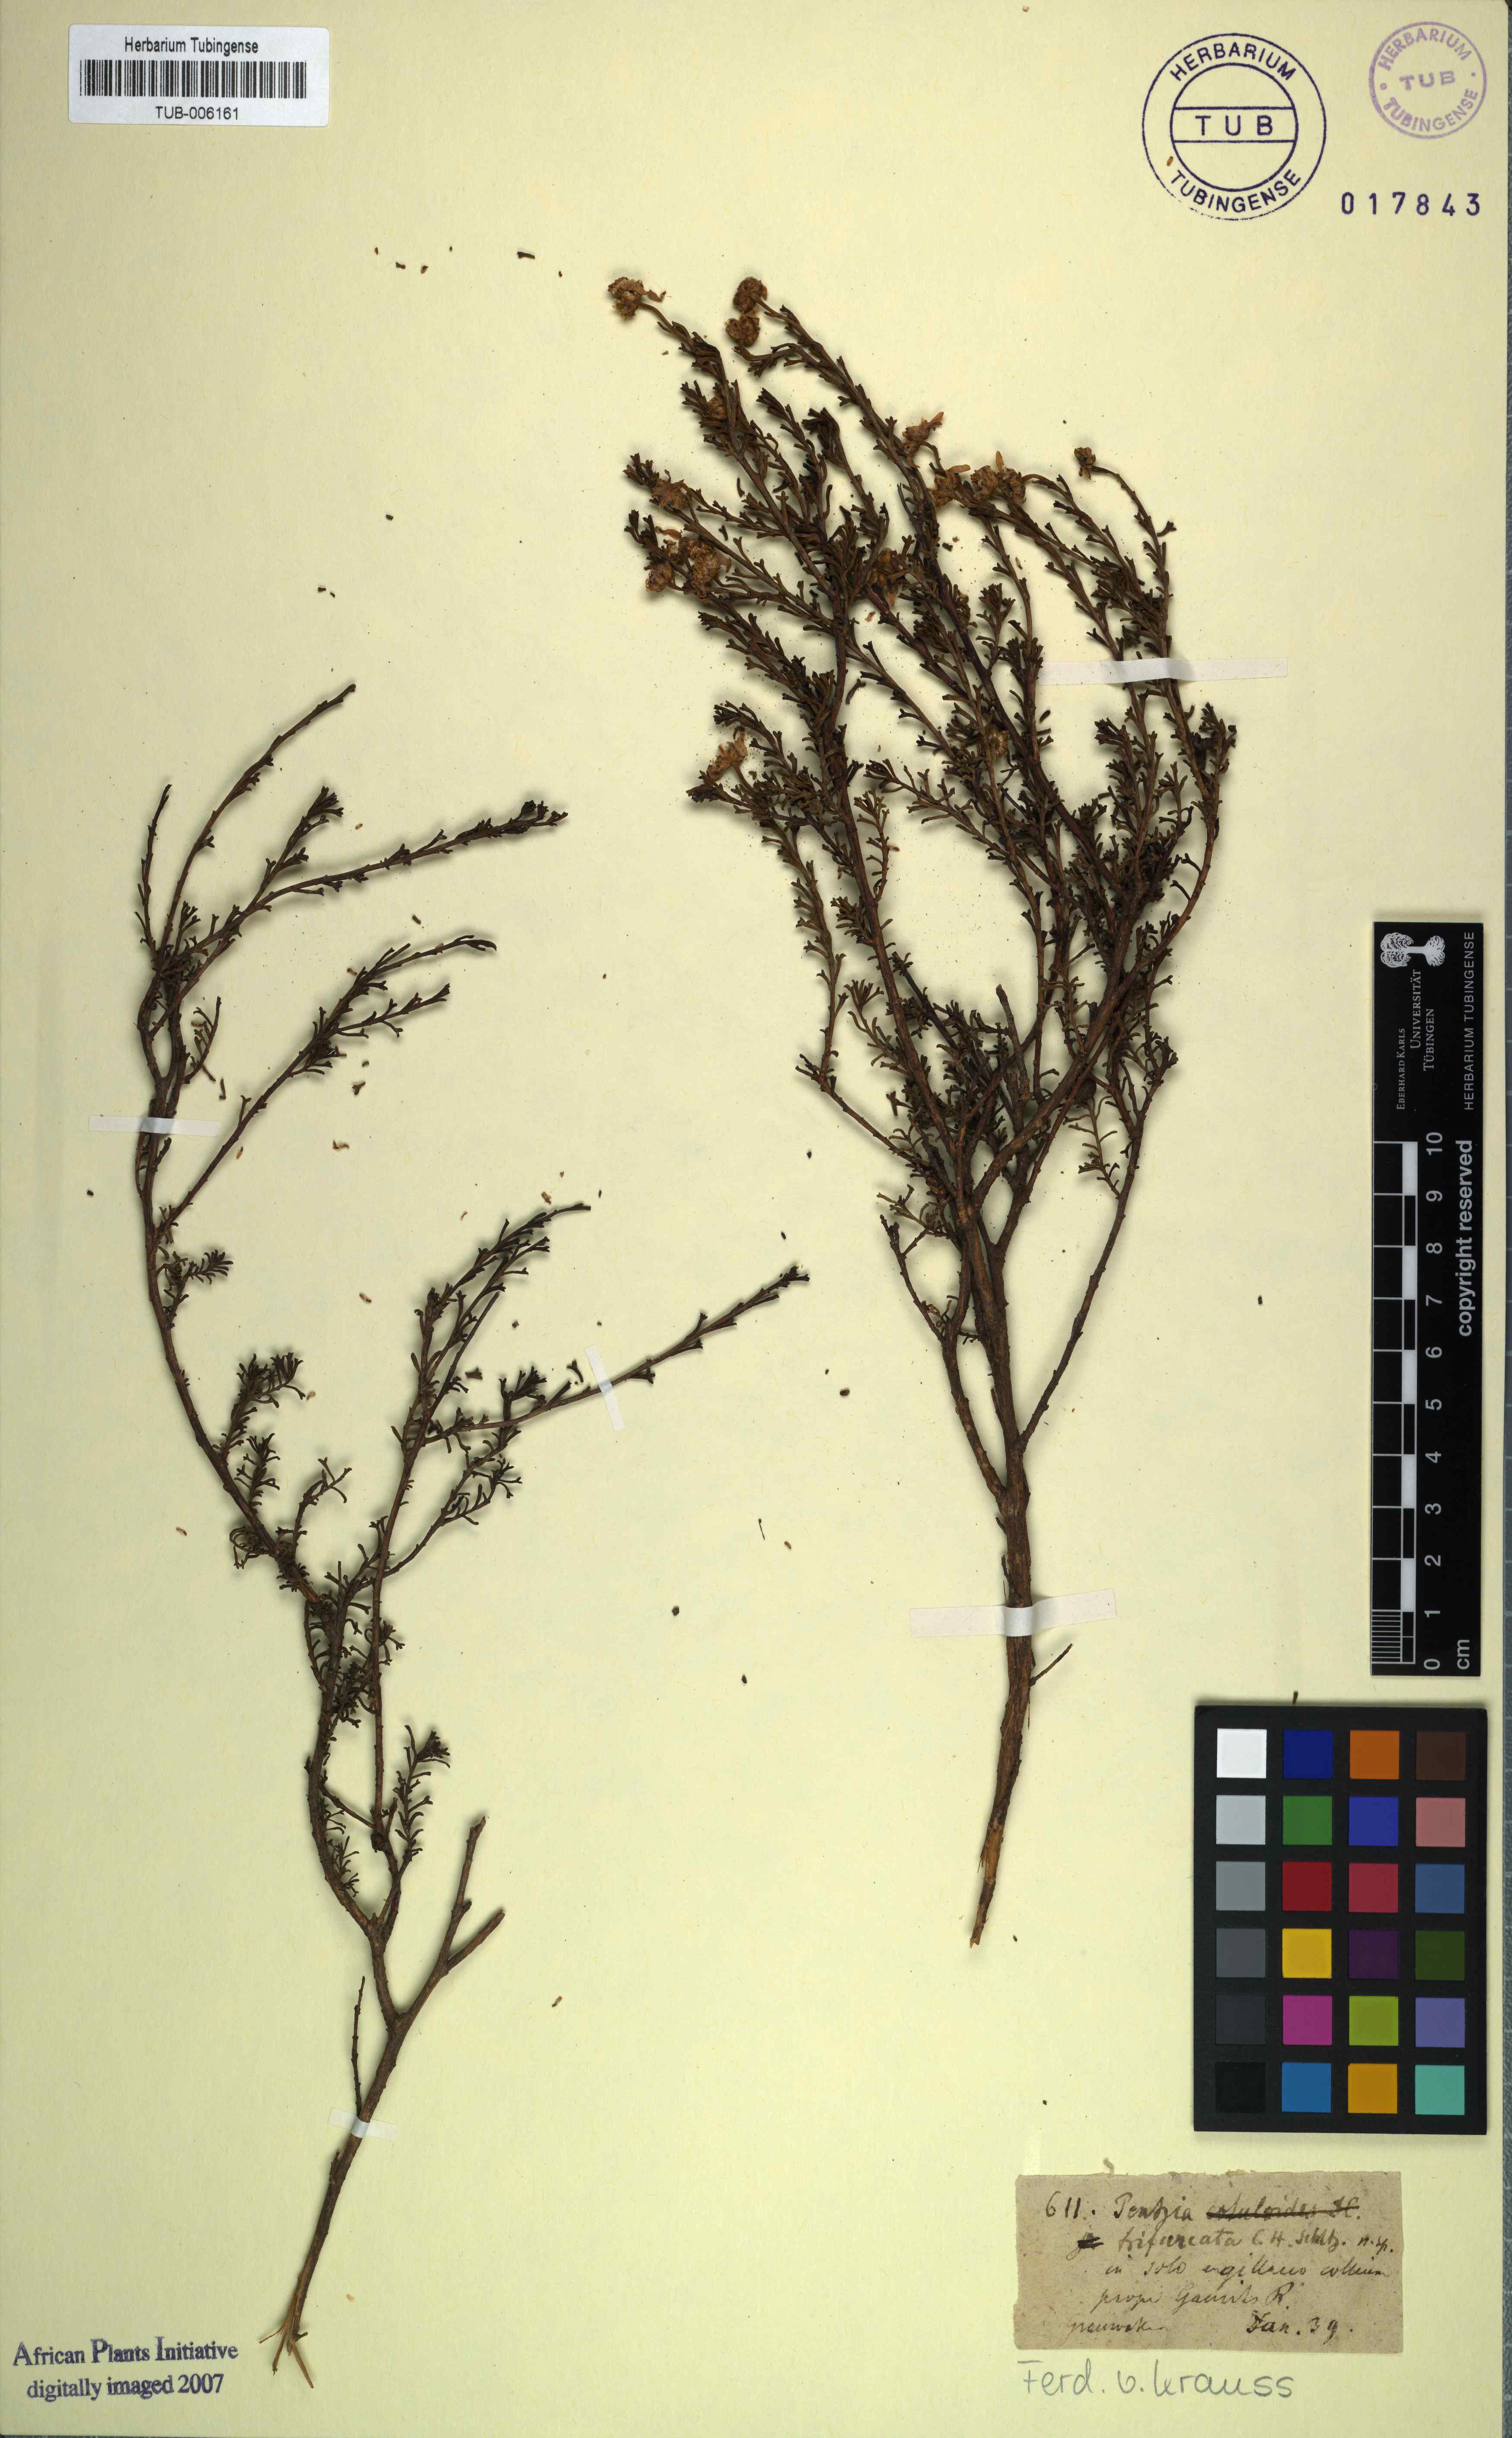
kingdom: Plantae
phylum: Tracheophyta
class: Magnoliopsida
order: Asterales
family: Asteraceae
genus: Pentzia
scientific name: Pentzia trifurcata
